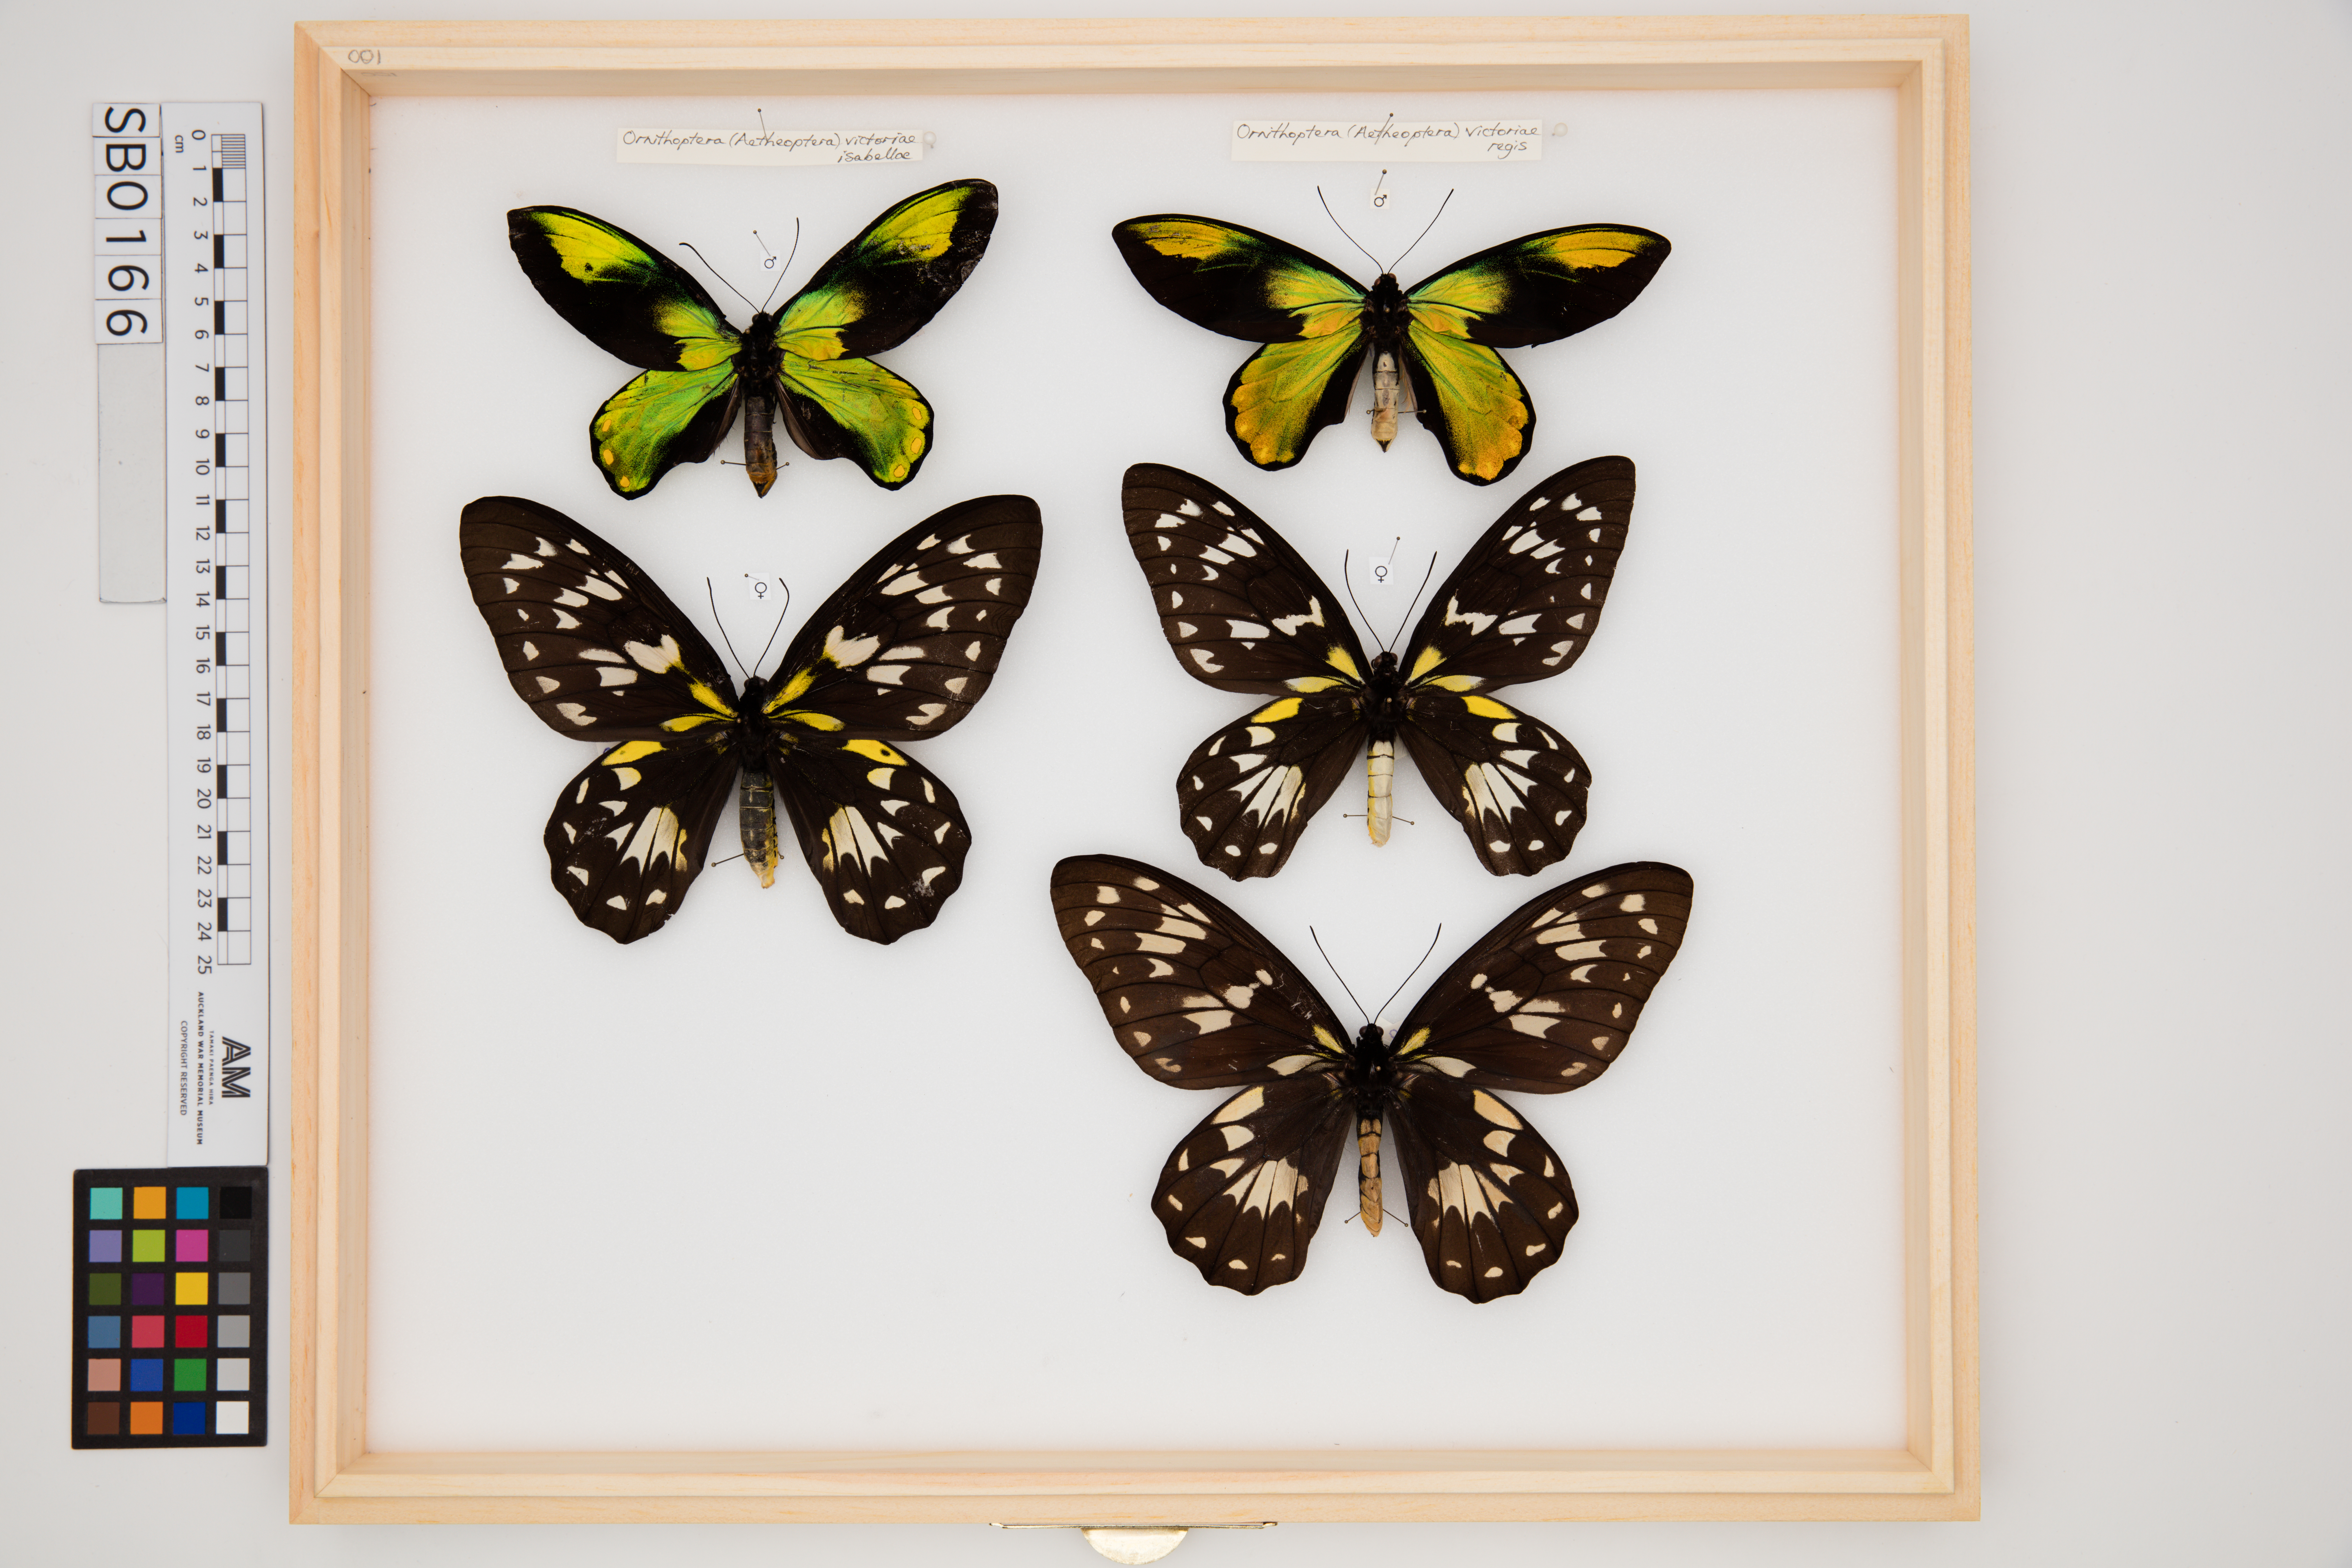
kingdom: Animalia
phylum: Arthropoda
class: Insecta
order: Lepidoptera
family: Papilionidae
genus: Ornithoptera
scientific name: Ornithoptera victoriae
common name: Queen victoria's birdwing
